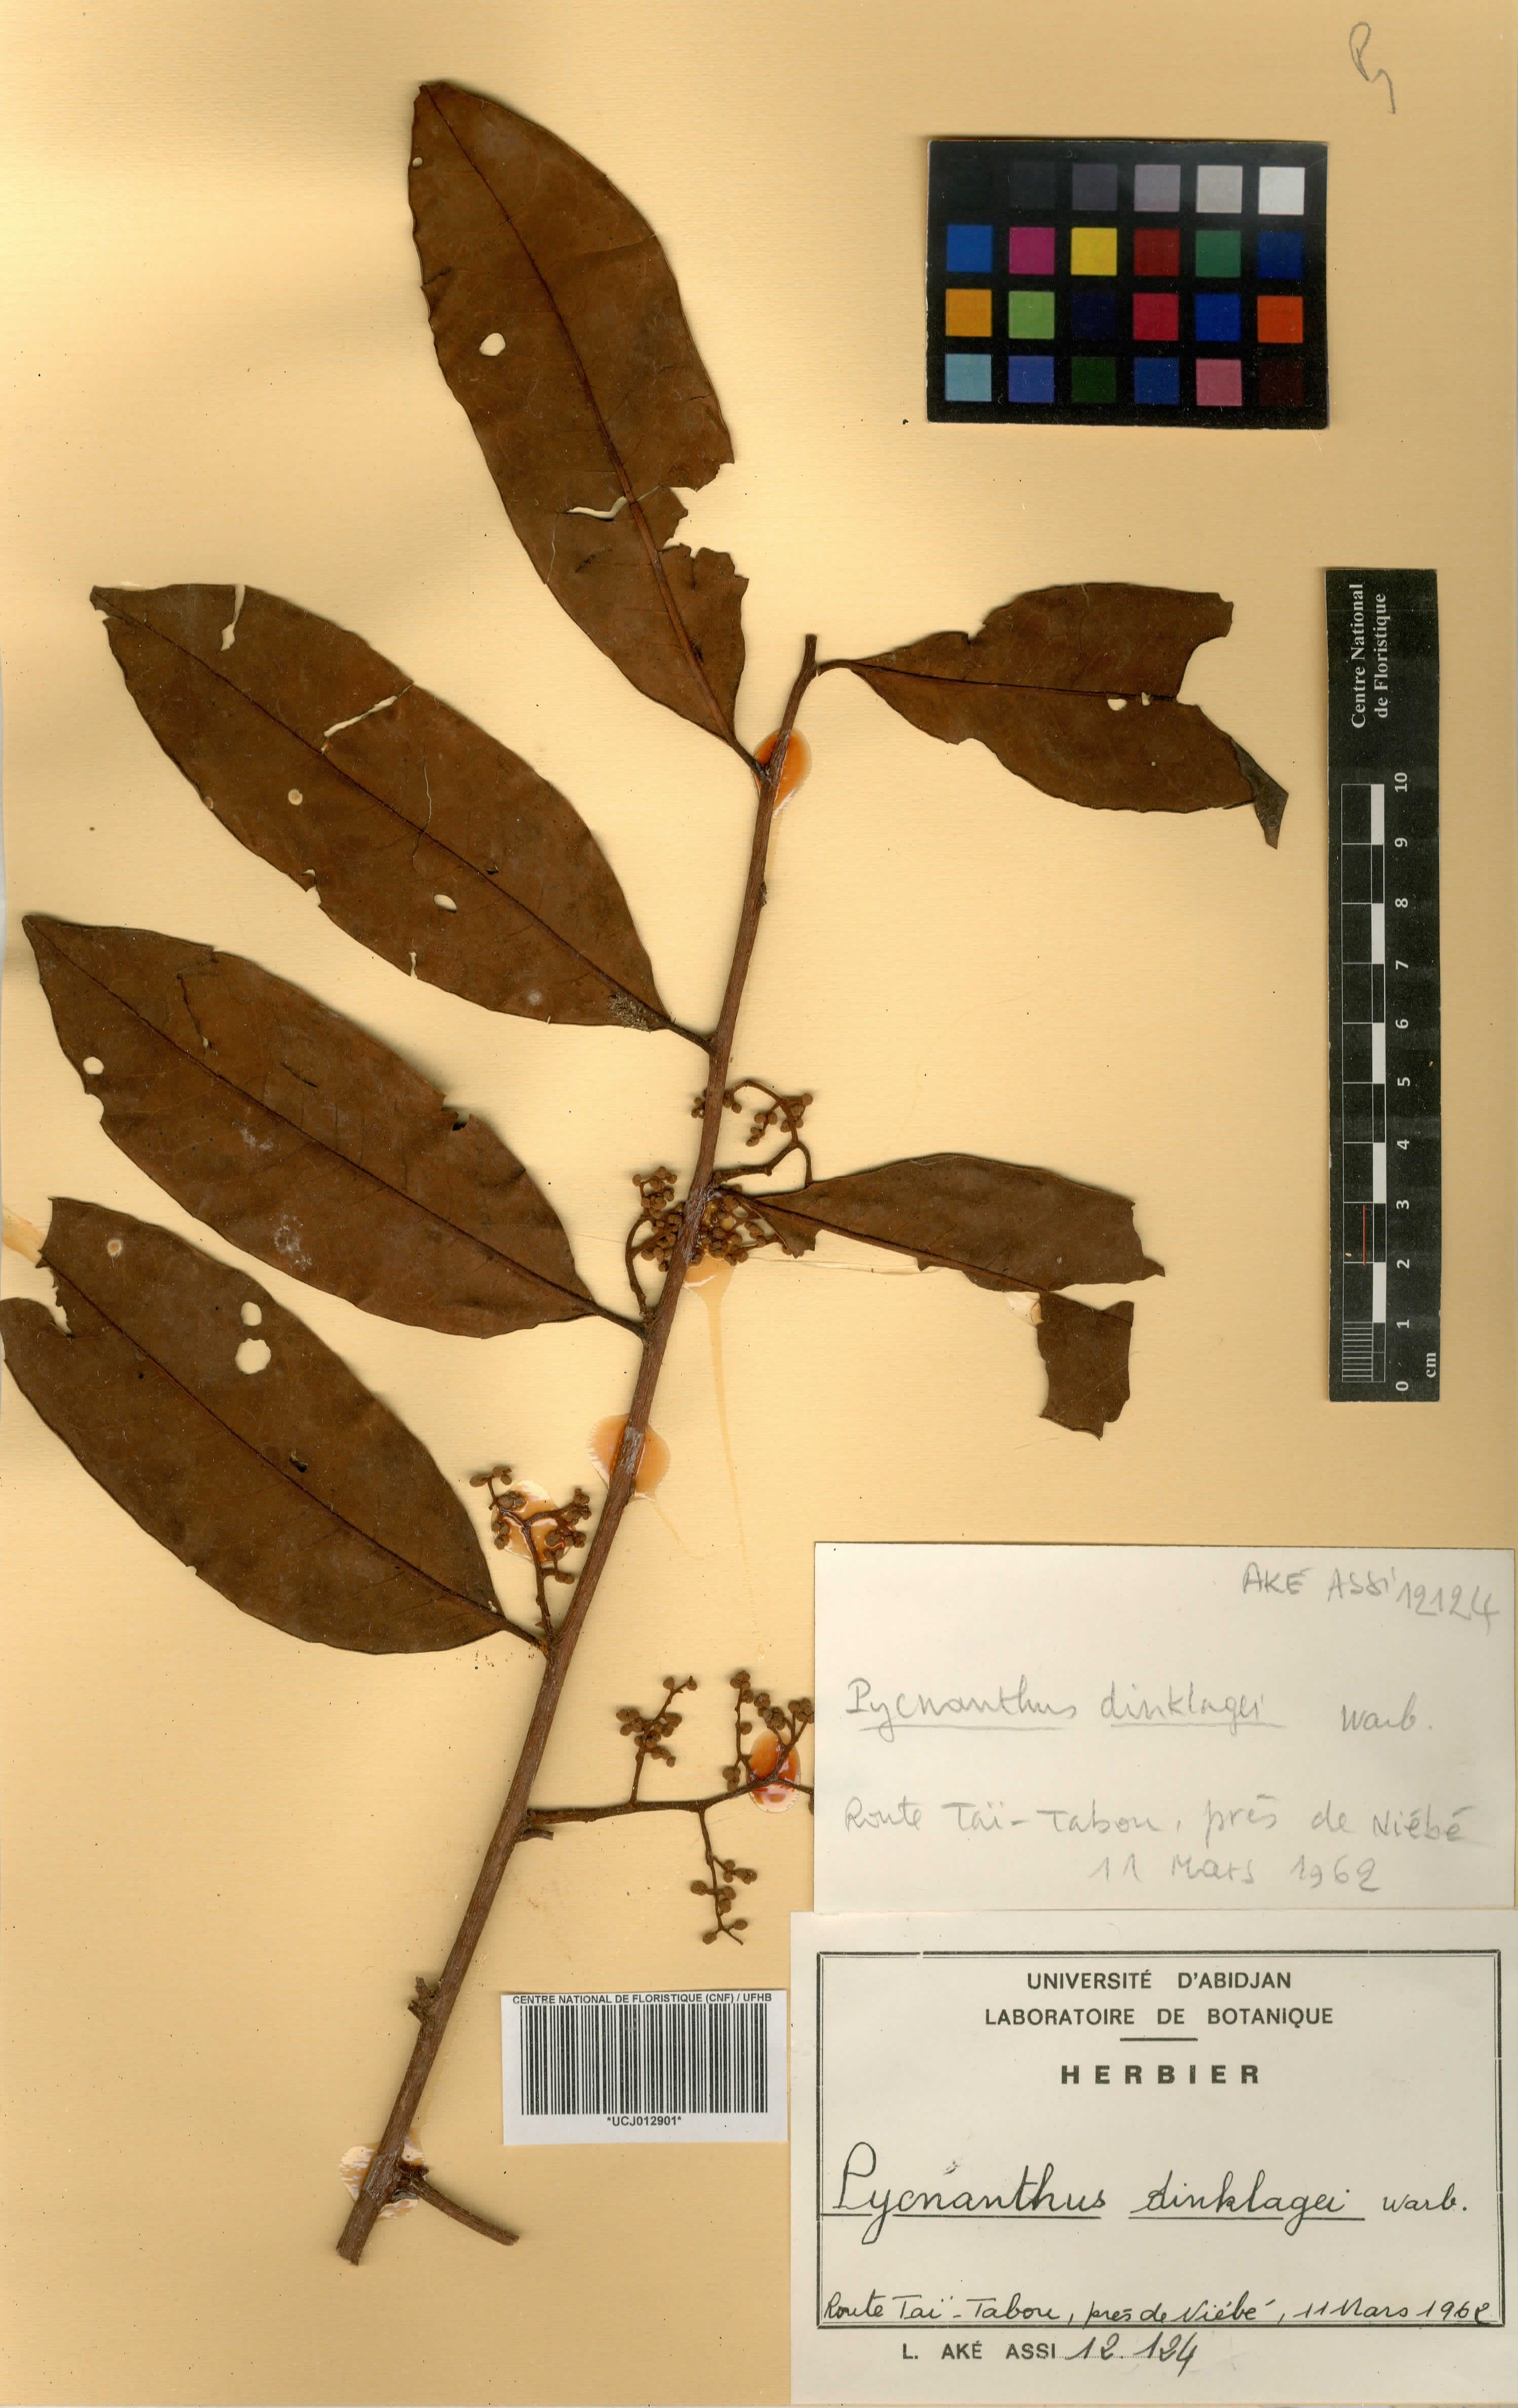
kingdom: Plantae
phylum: Tracheophyta
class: Magnoliopsida
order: Magnoliales
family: Myristicaceae
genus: Pycnanthus
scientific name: Pycnanthus dinklagei
